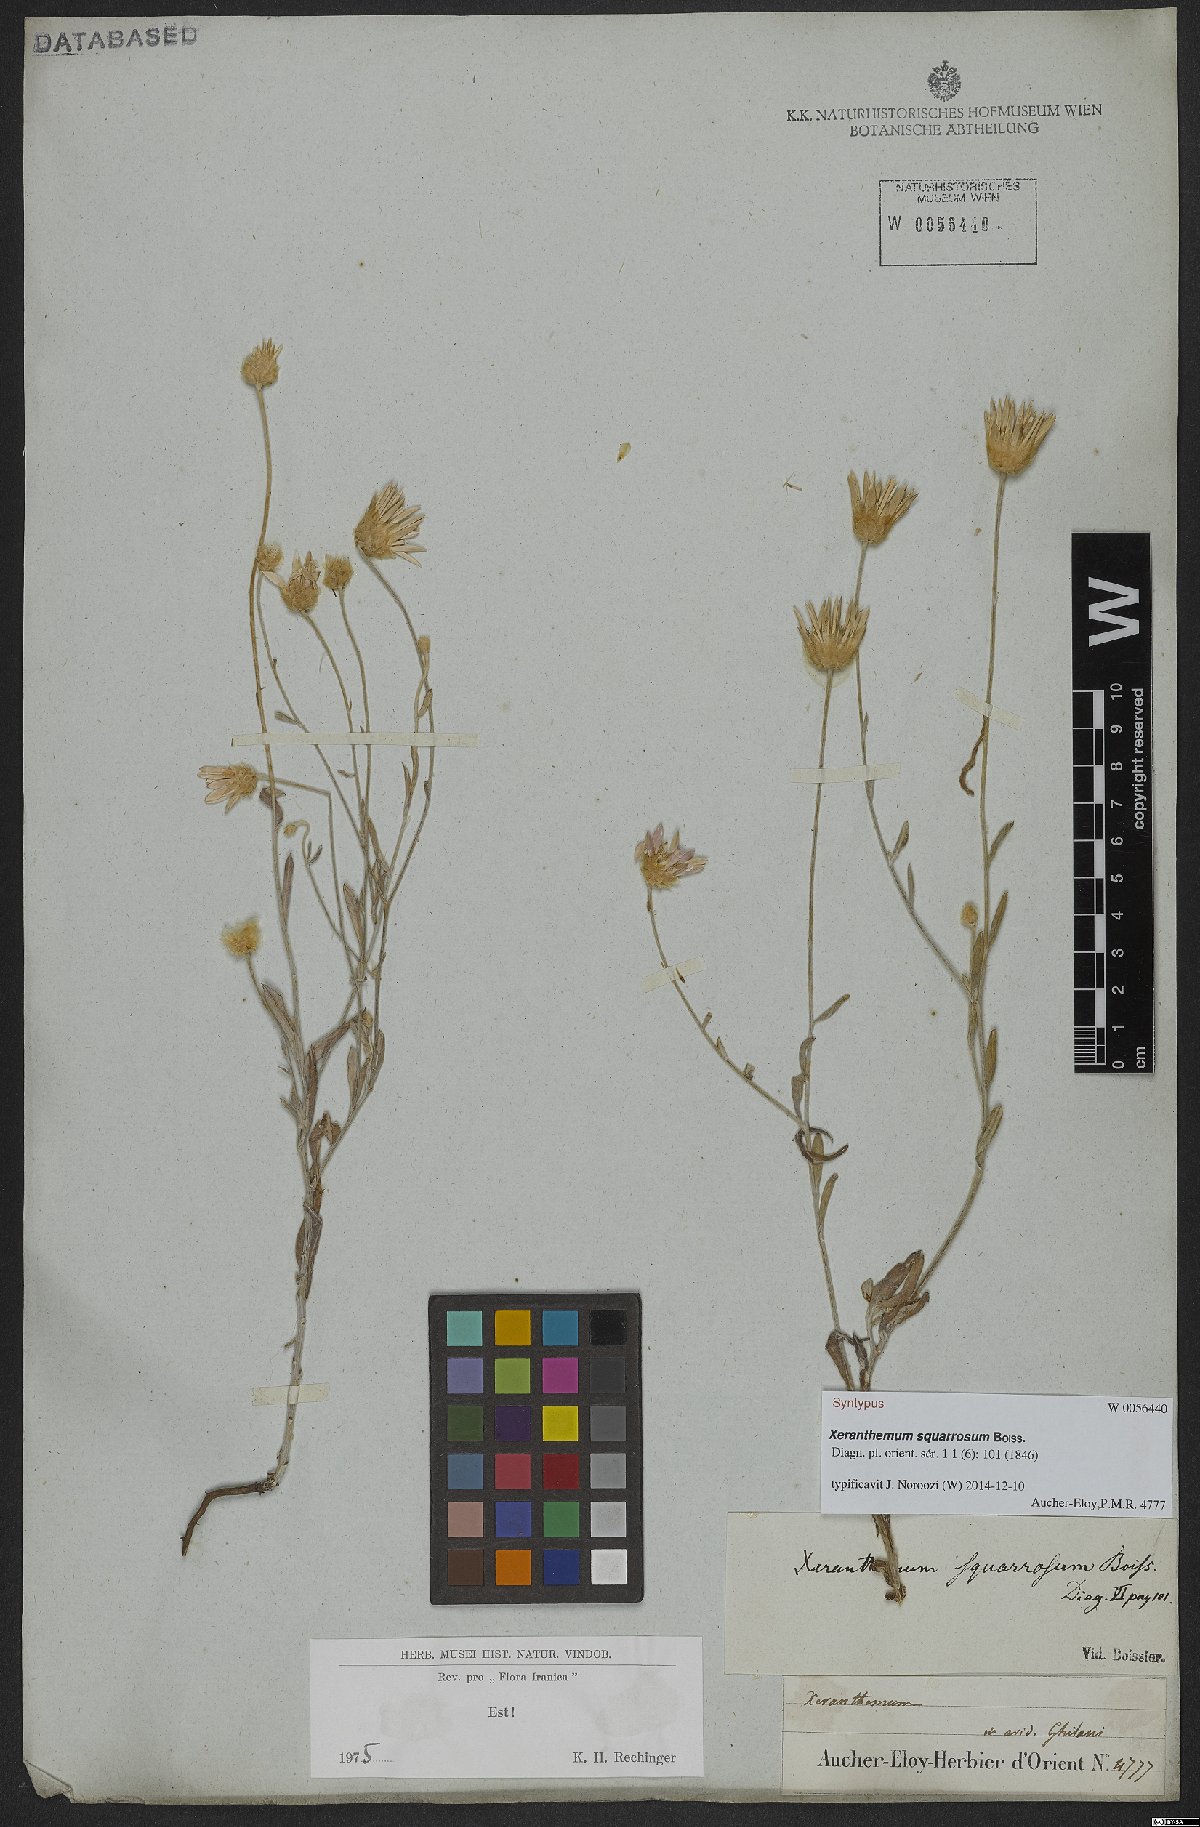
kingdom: Plantae
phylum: Tracheophyta
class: Magnoliopsida
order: Asterales
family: Asteraceae
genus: Xeranthemum
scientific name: Xeranthemum squarrosum
